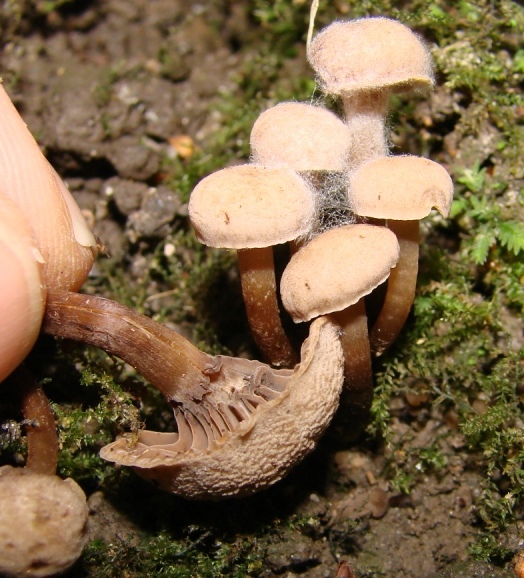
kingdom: Fungi
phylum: Basidiomycota
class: Agaricomycetes
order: Agaricales
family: Clavariaceae
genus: Hodophilus
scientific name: Hodophilus
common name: kratvokshat
